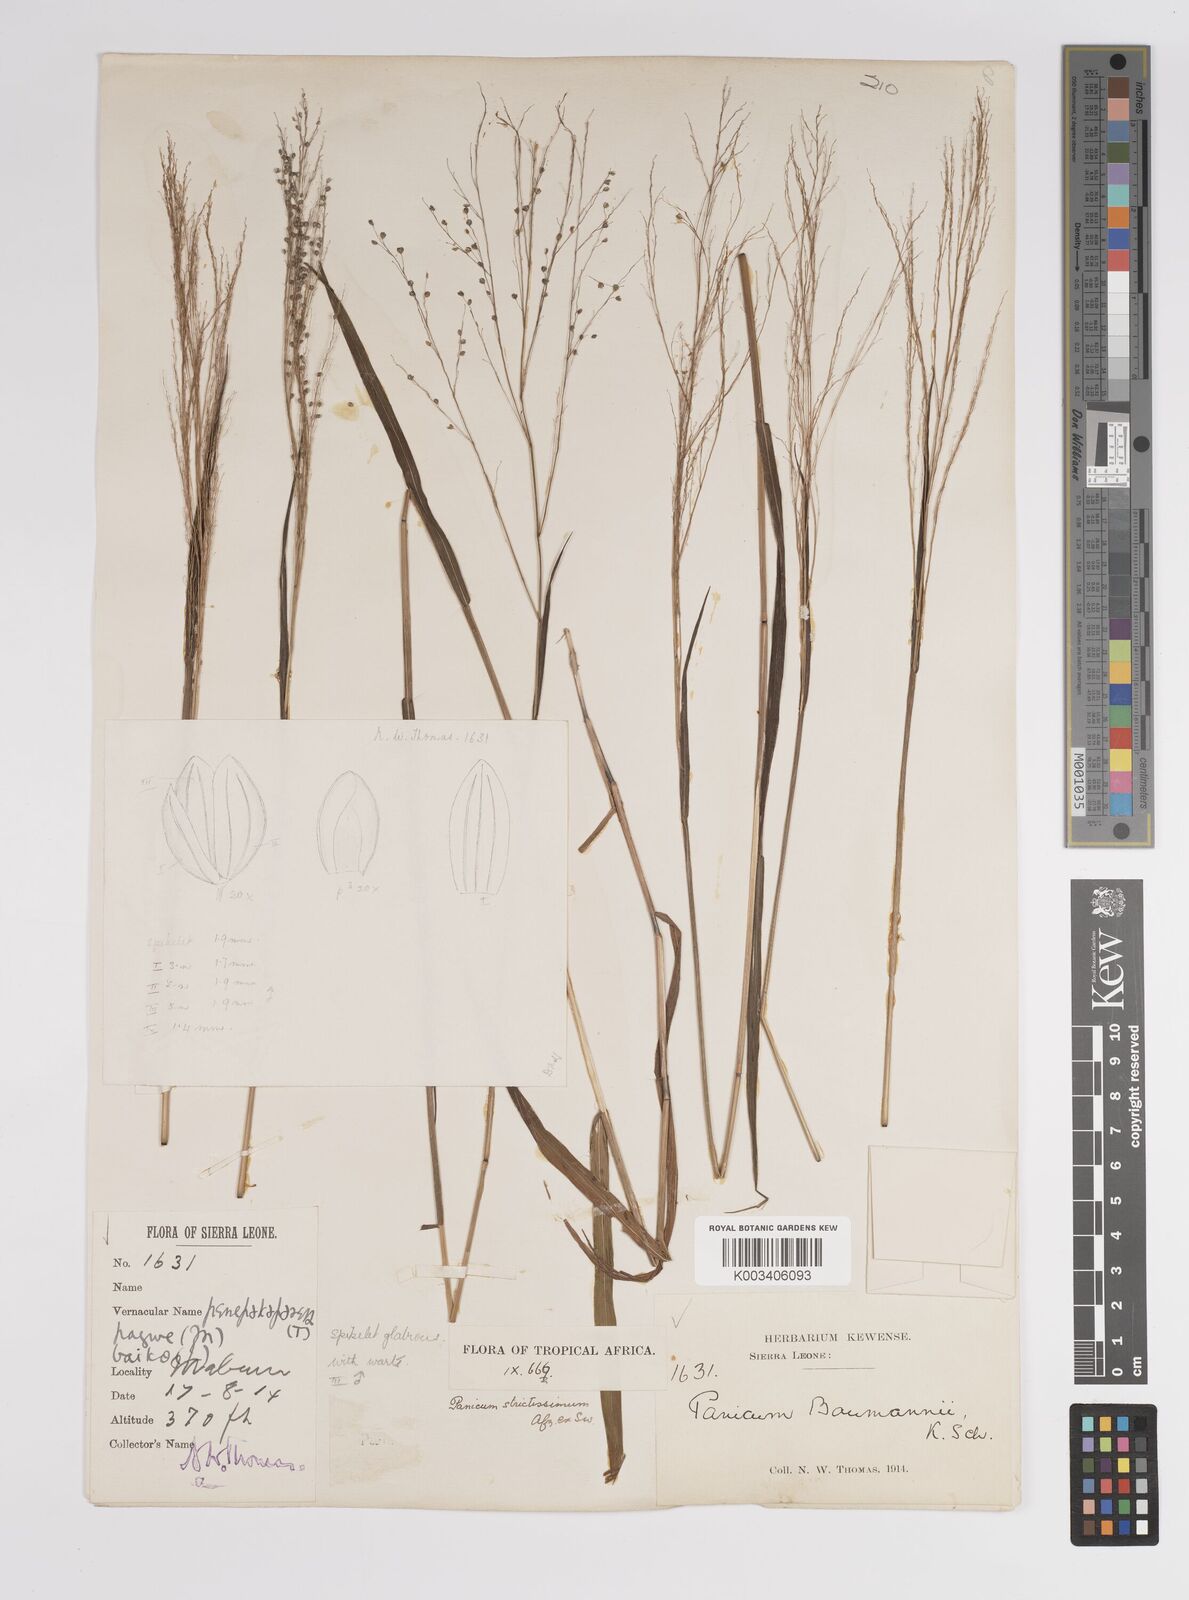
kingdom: Plantae
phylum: Tracheophyta
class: Liliopsida
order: Poales
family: Poaceae
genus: Trichanthecium
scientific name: Trichanthecium praealtum
